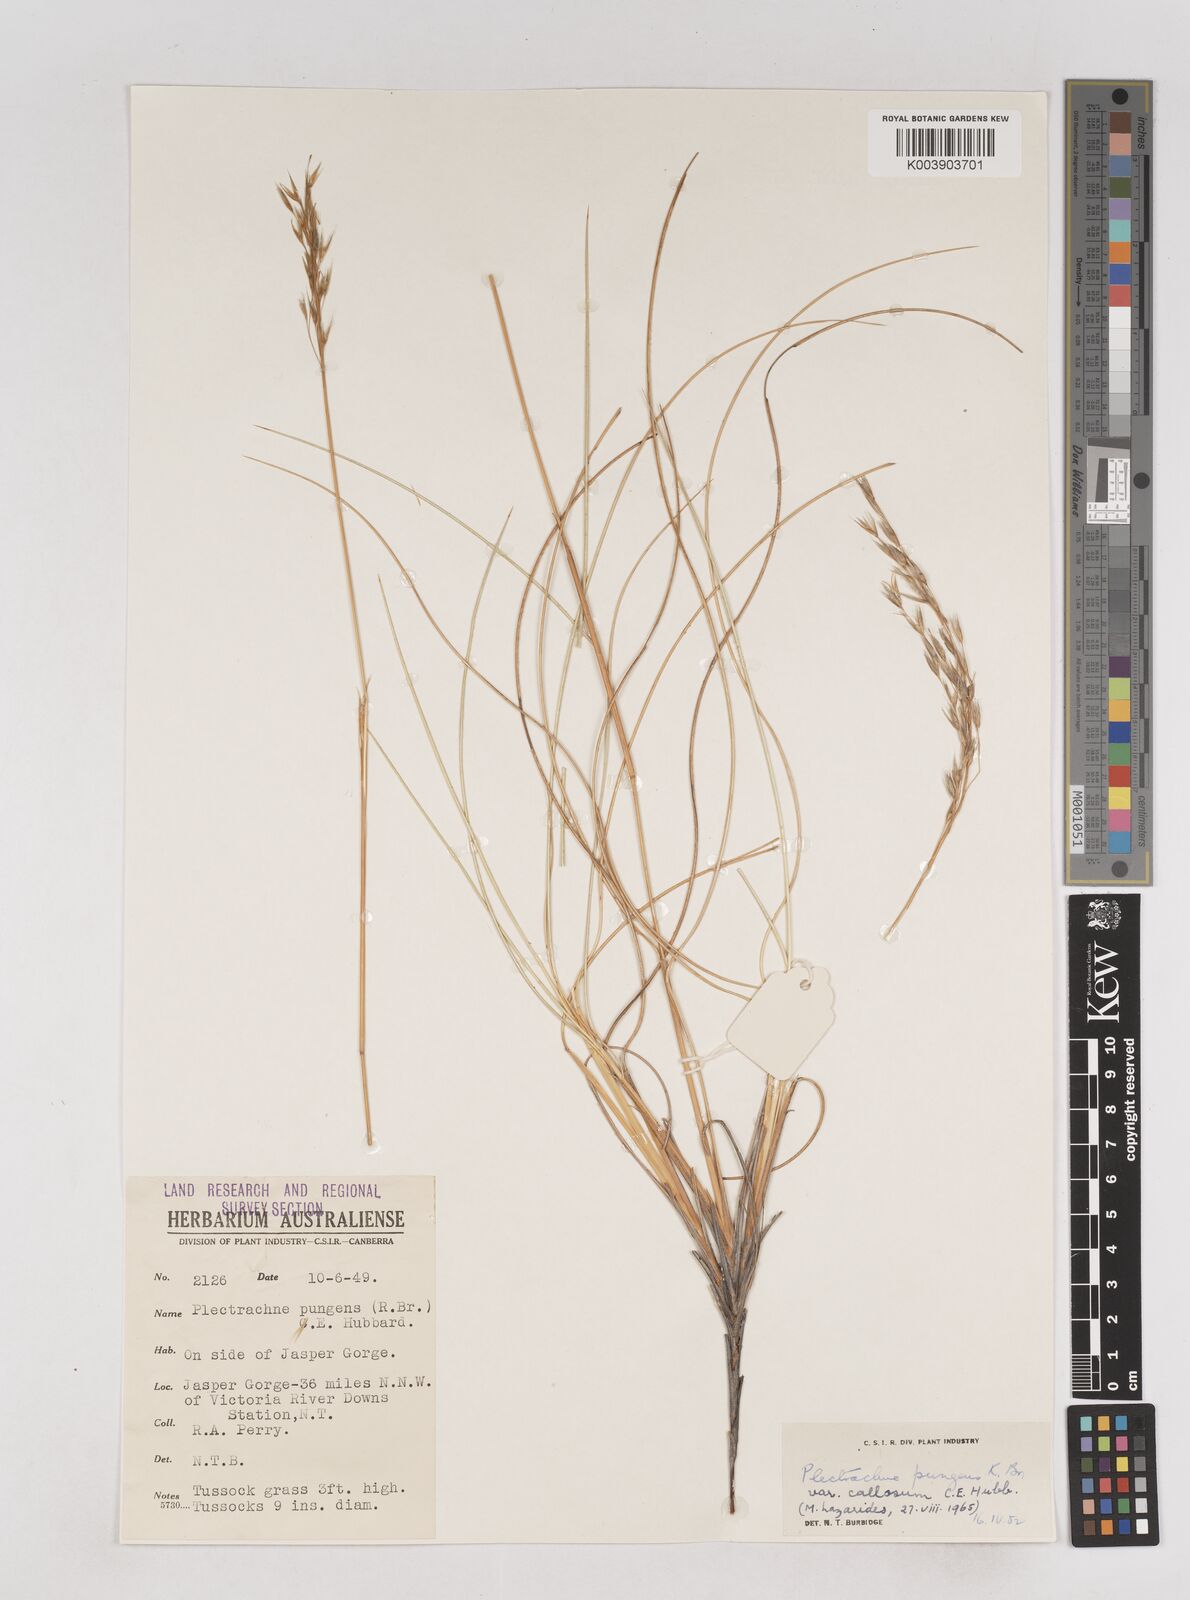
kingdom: Plantae
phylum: Tracheophyta
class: Liliopsida
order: Poales
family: Poaceae
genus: Triodia
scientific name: Triodia bitextura
